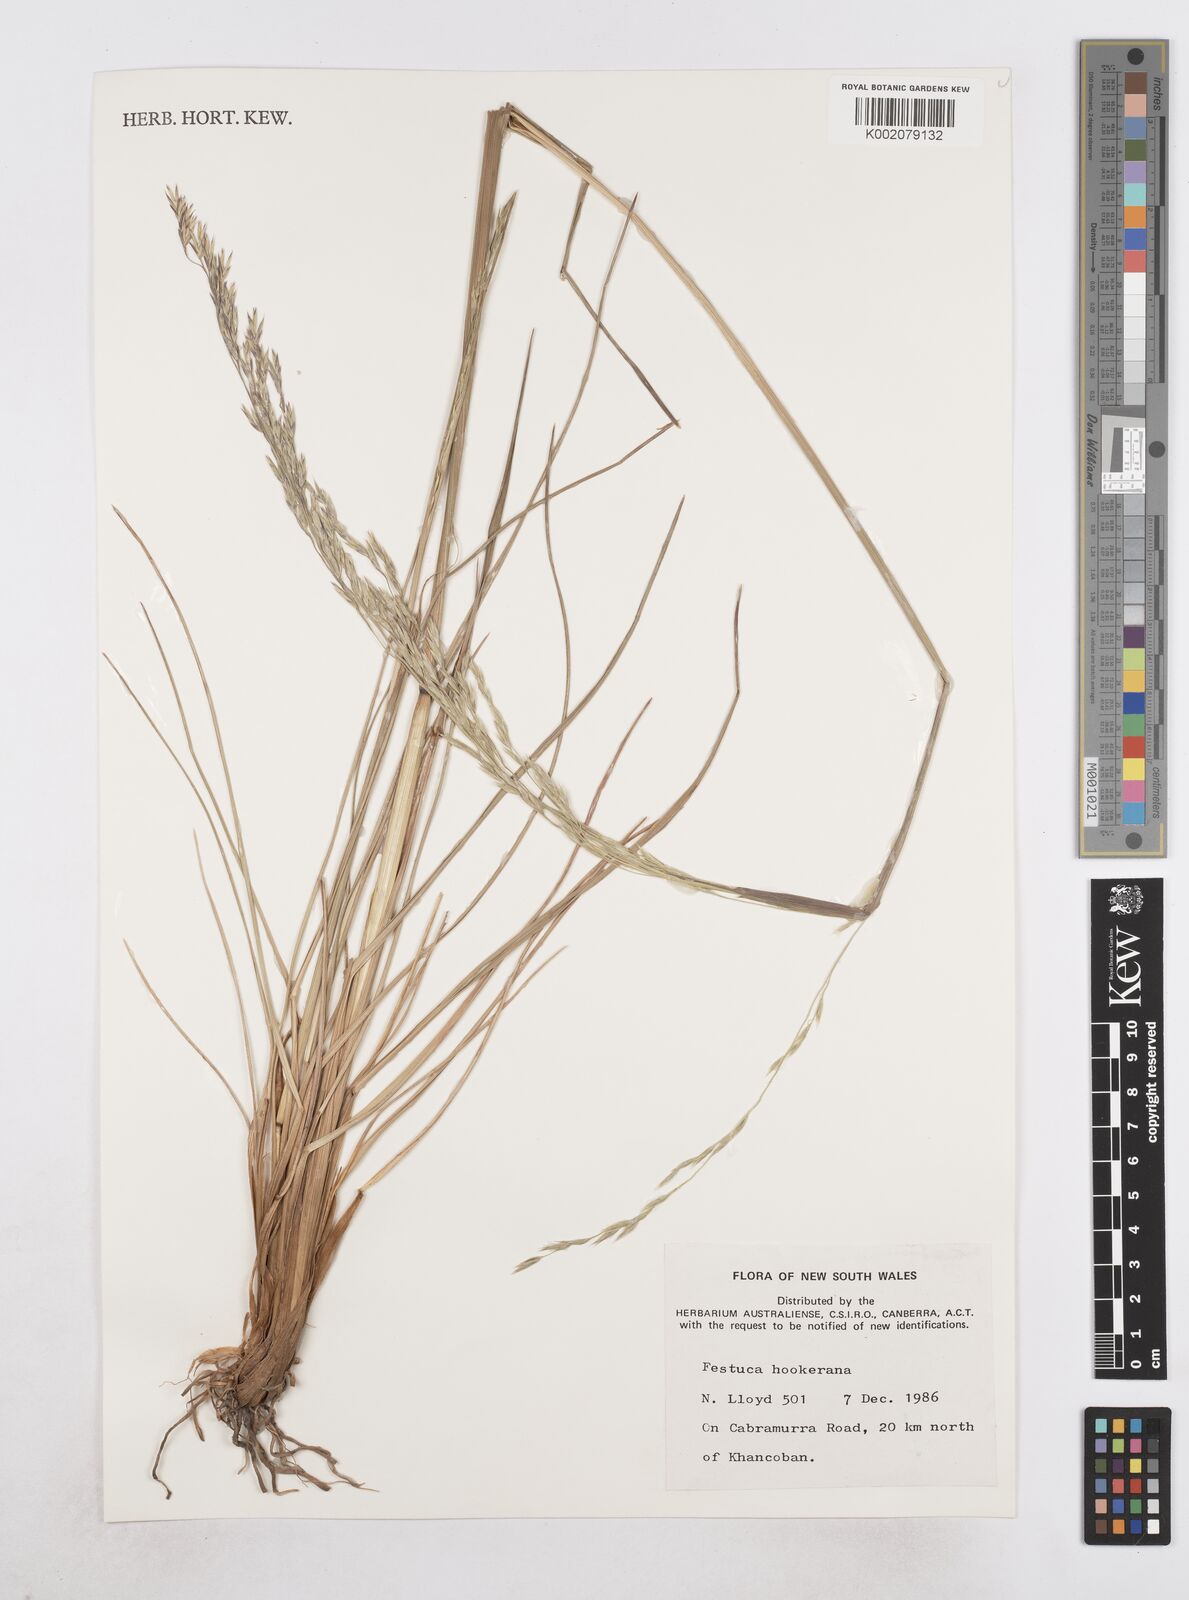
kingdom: Plantae
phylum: Tracheophyta
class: Liliopsida
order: Poales
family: Poaceae
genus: Hookerochloa
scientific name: Hookerochloa hookeriana
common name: Hooker's-fescue
